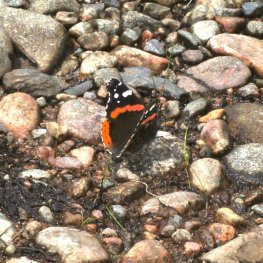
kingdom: Animalia
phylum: Arthropoda
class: Insecta
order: Lepidoptera
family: Nymphalidae
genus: Vanessa
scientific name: Vanessa atalanta
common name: Red Admiral
